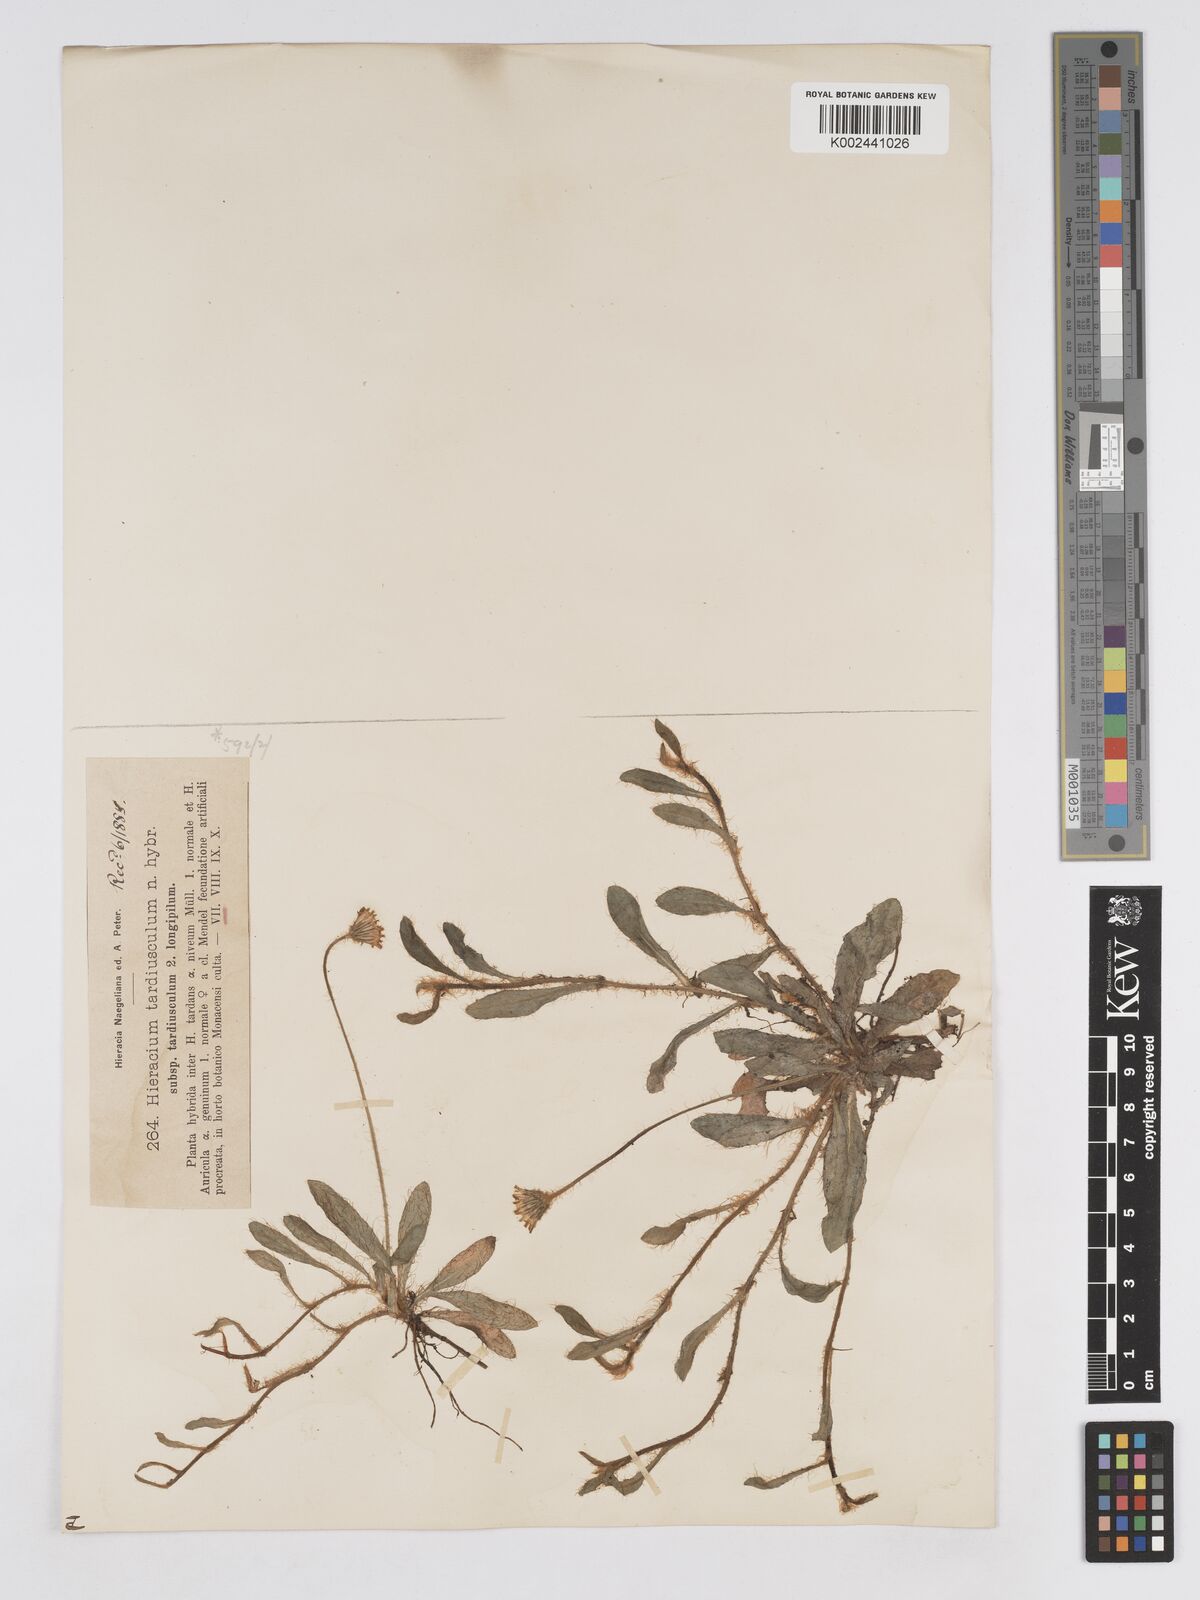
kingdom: Plantae
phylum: Tracheophyta
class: Magnoliopsida
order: Asterales
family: Asteraceae
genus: Pilosella
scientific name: Pilosella schultesii
